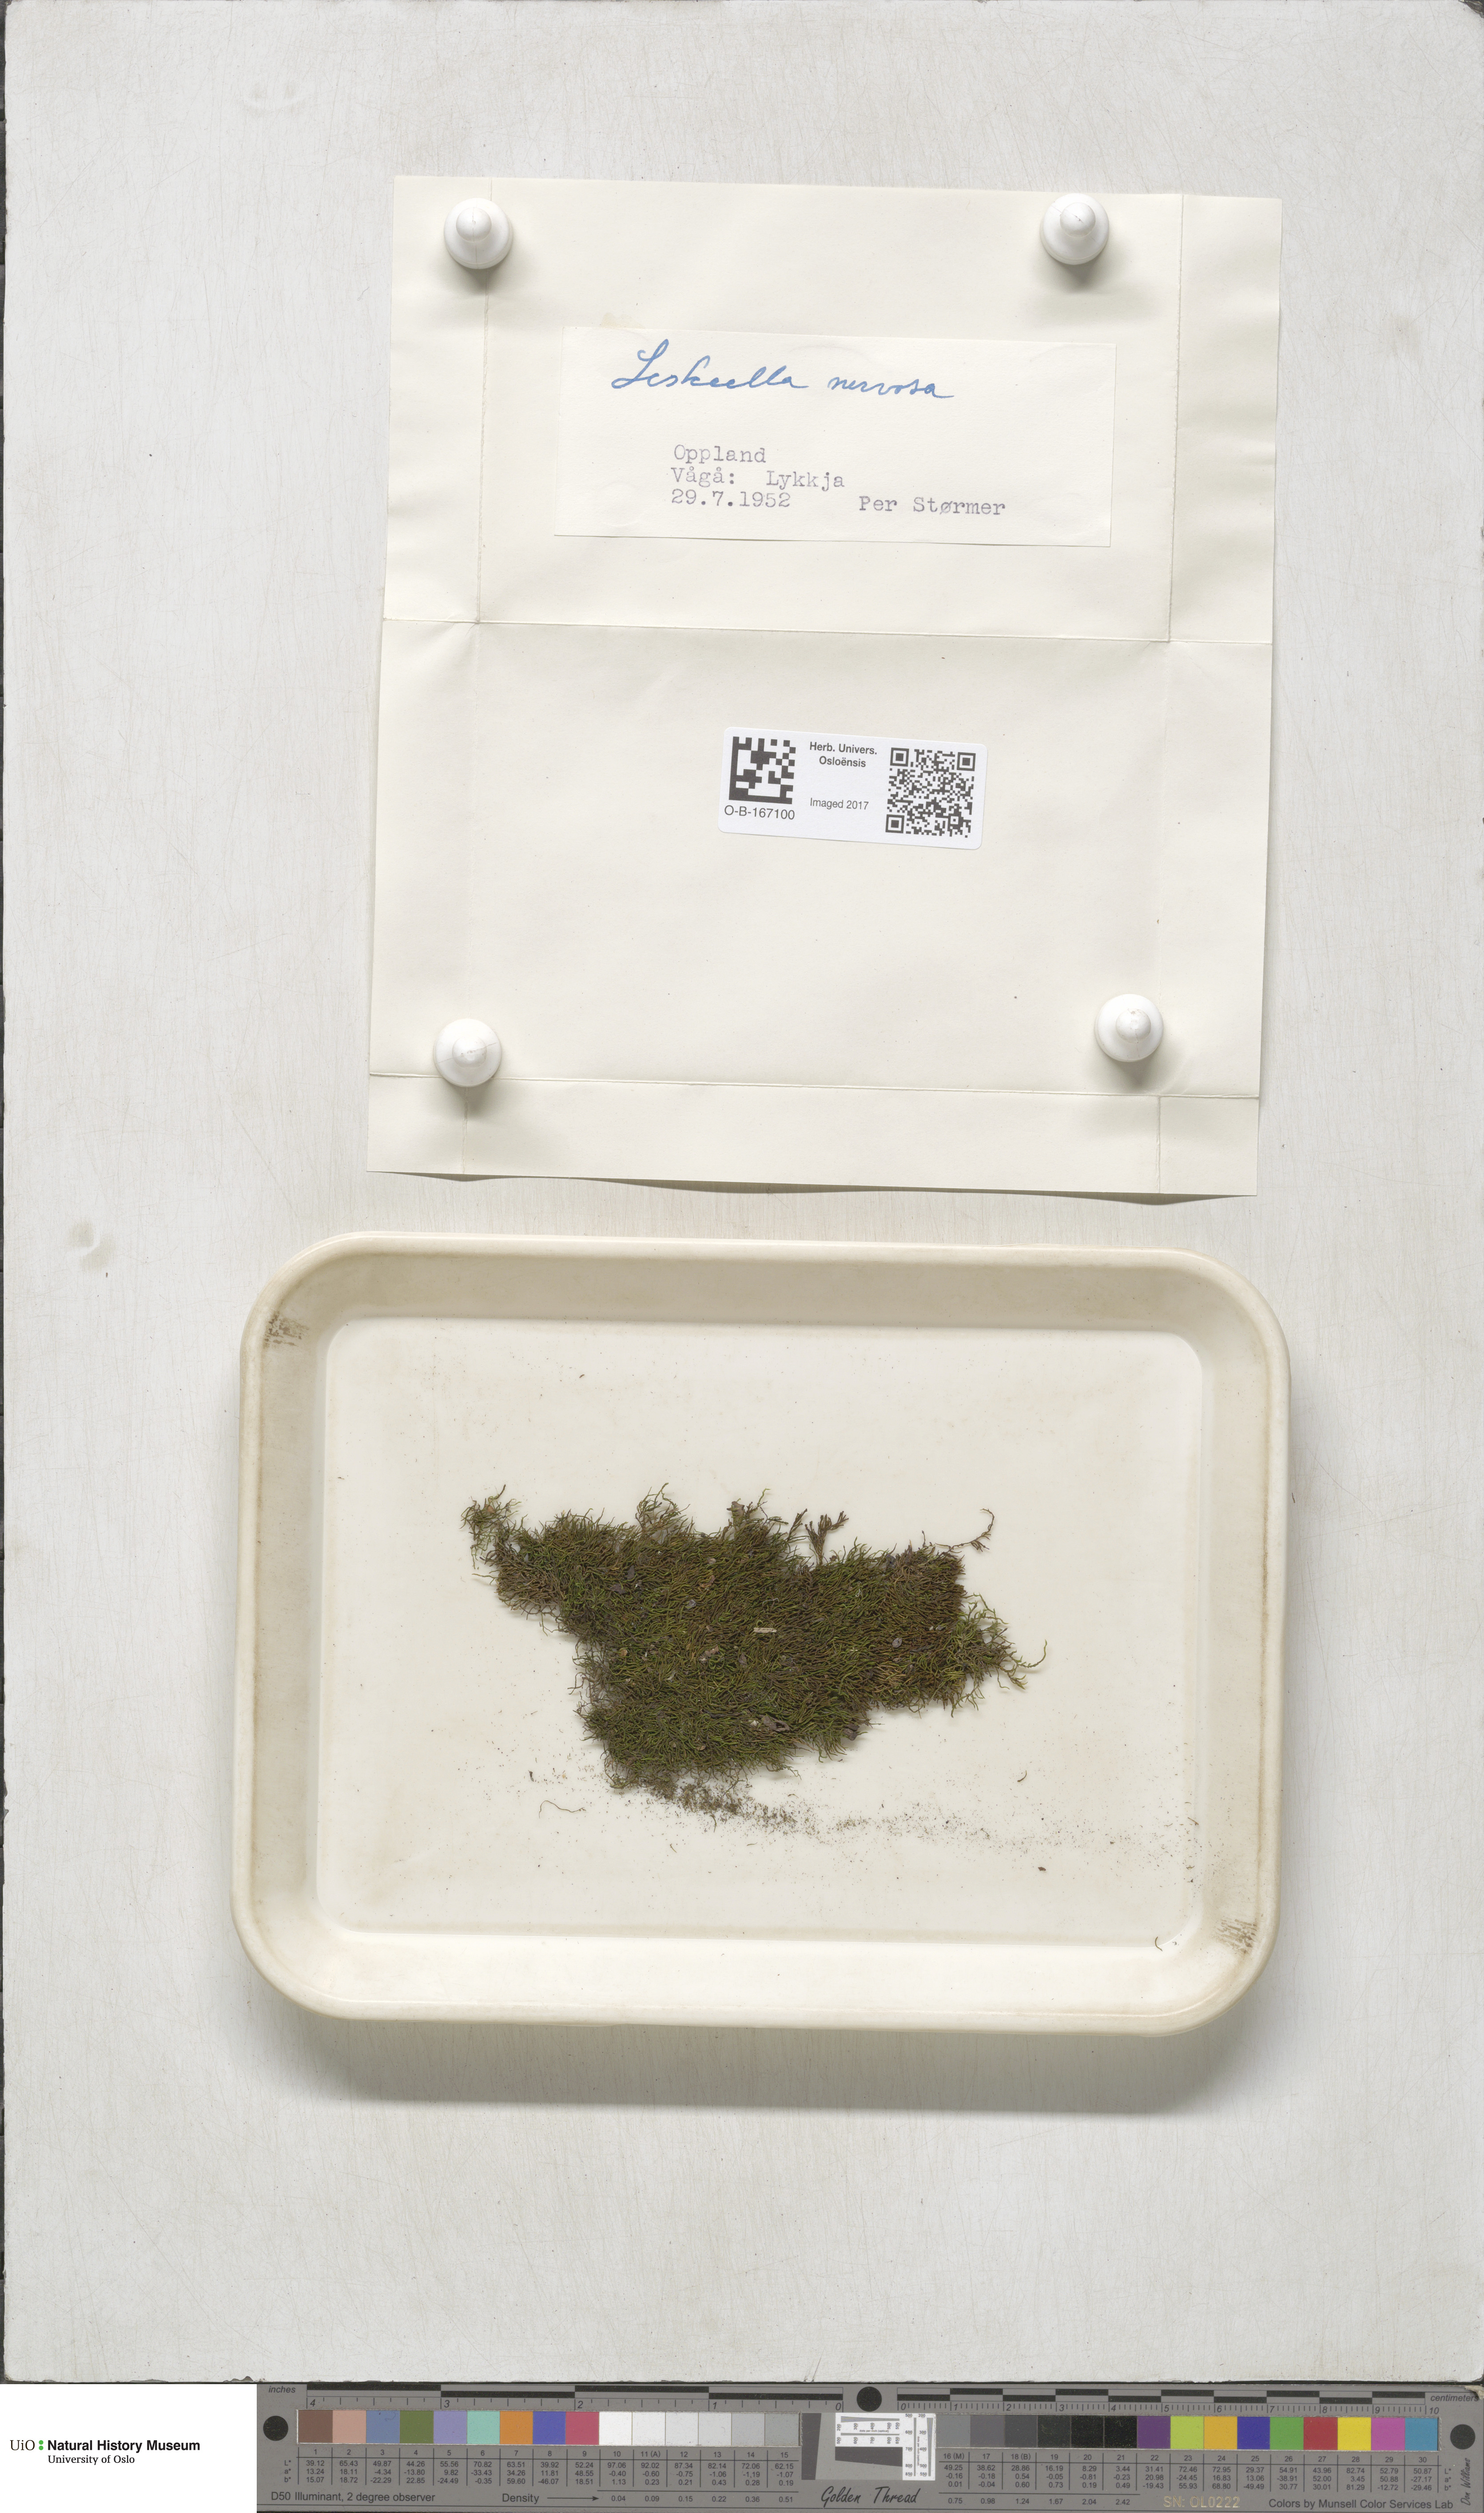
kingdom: Plantae
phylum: Bryophyta
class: Bryopsida
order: Hypnales
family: Pseudoleskeellaceae
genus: Pseudoleskeella
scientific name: Pseudoleskeella nervosa
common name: Nerved leske's moss
